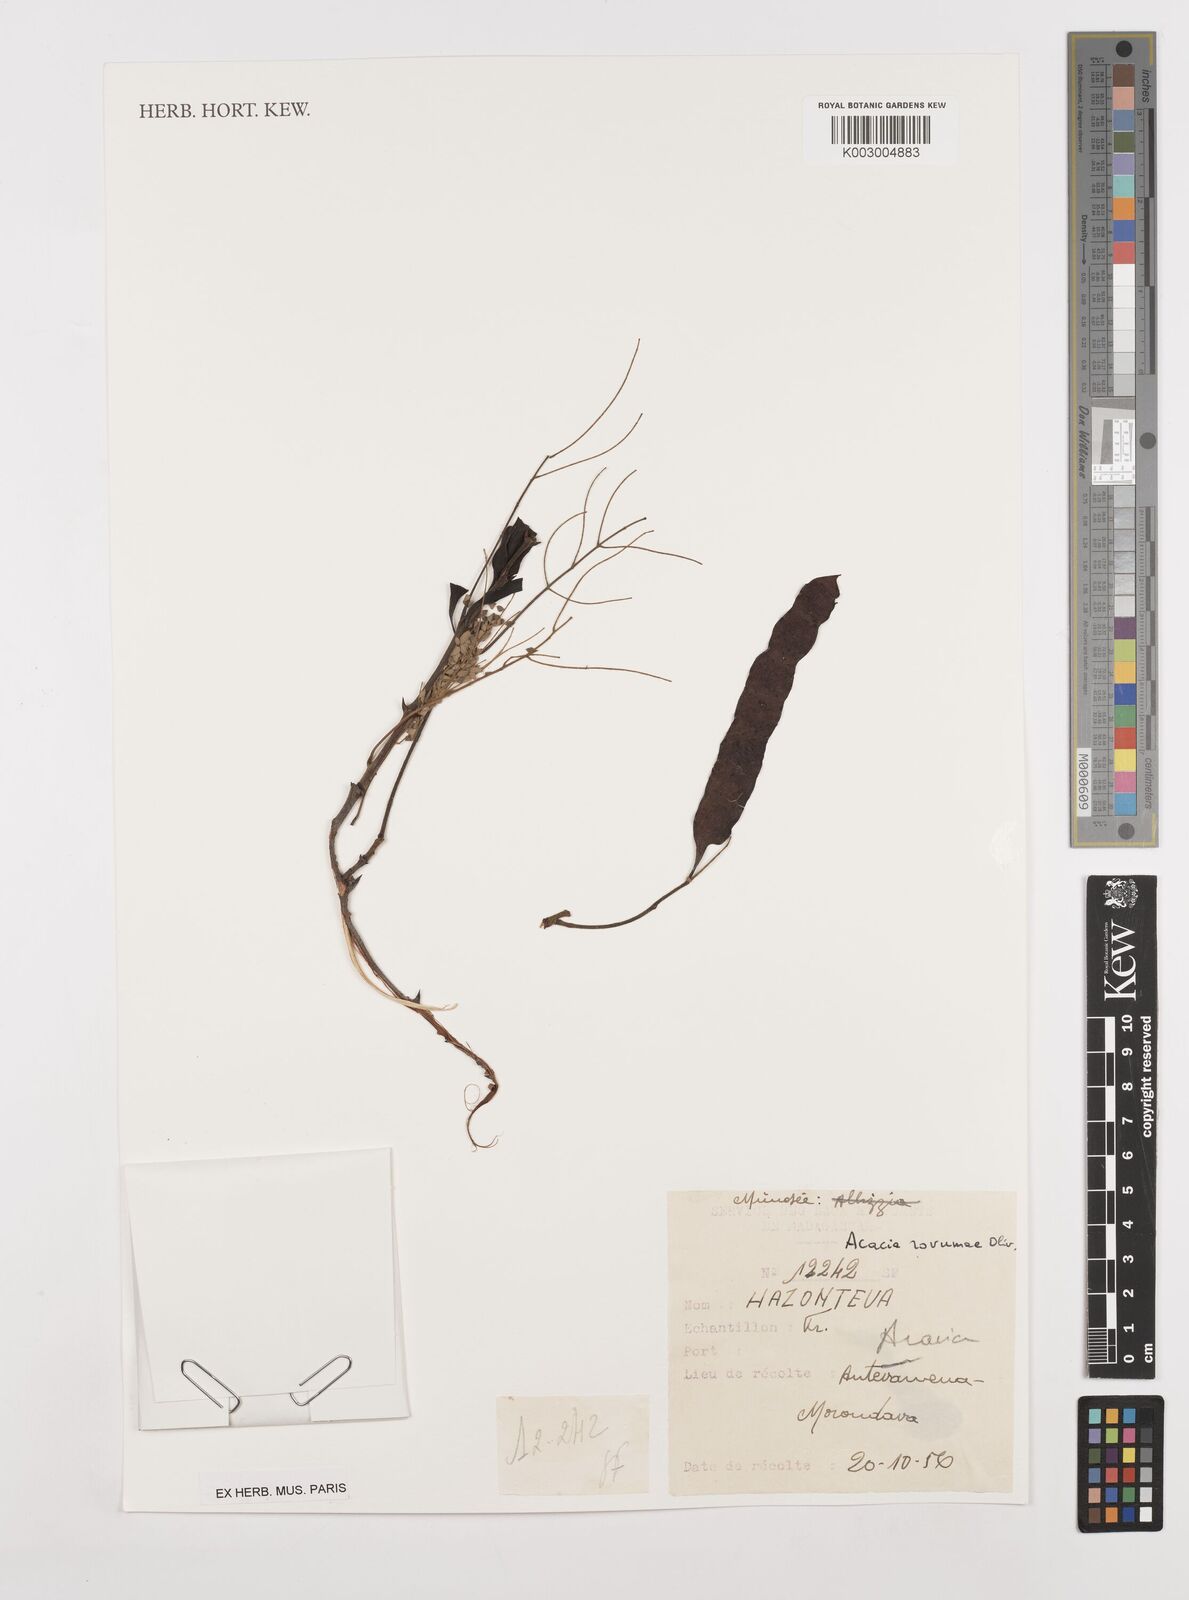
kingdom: Plantae
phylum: Tracheophyta
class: Magnoliopsida
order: Fabales
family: Fabaceae
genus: Senegalia
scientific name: Senegalia rovumae
